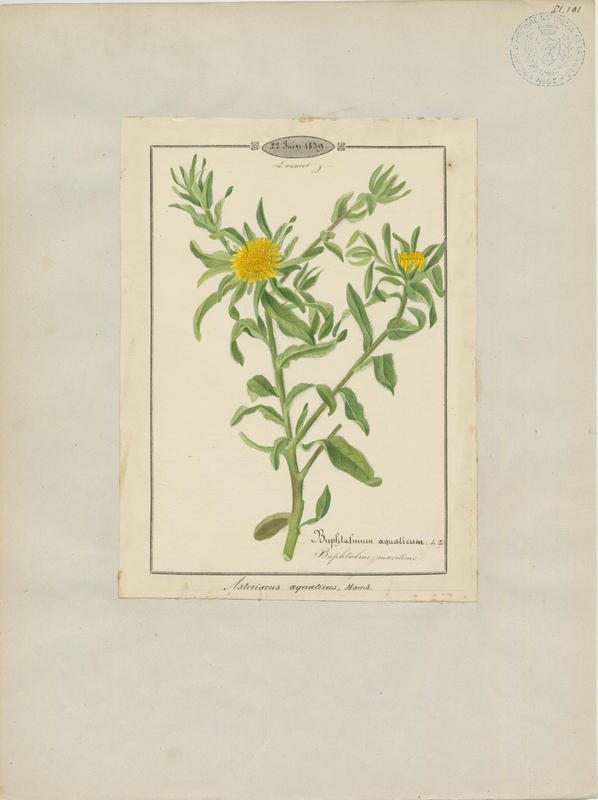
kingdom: Plantae
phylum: Tracheophyta
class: Magnoliopsida
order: Asterales
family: Asteraceae
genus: Pallenis
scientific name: Pallenis maritima
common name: Golden coin daisy
